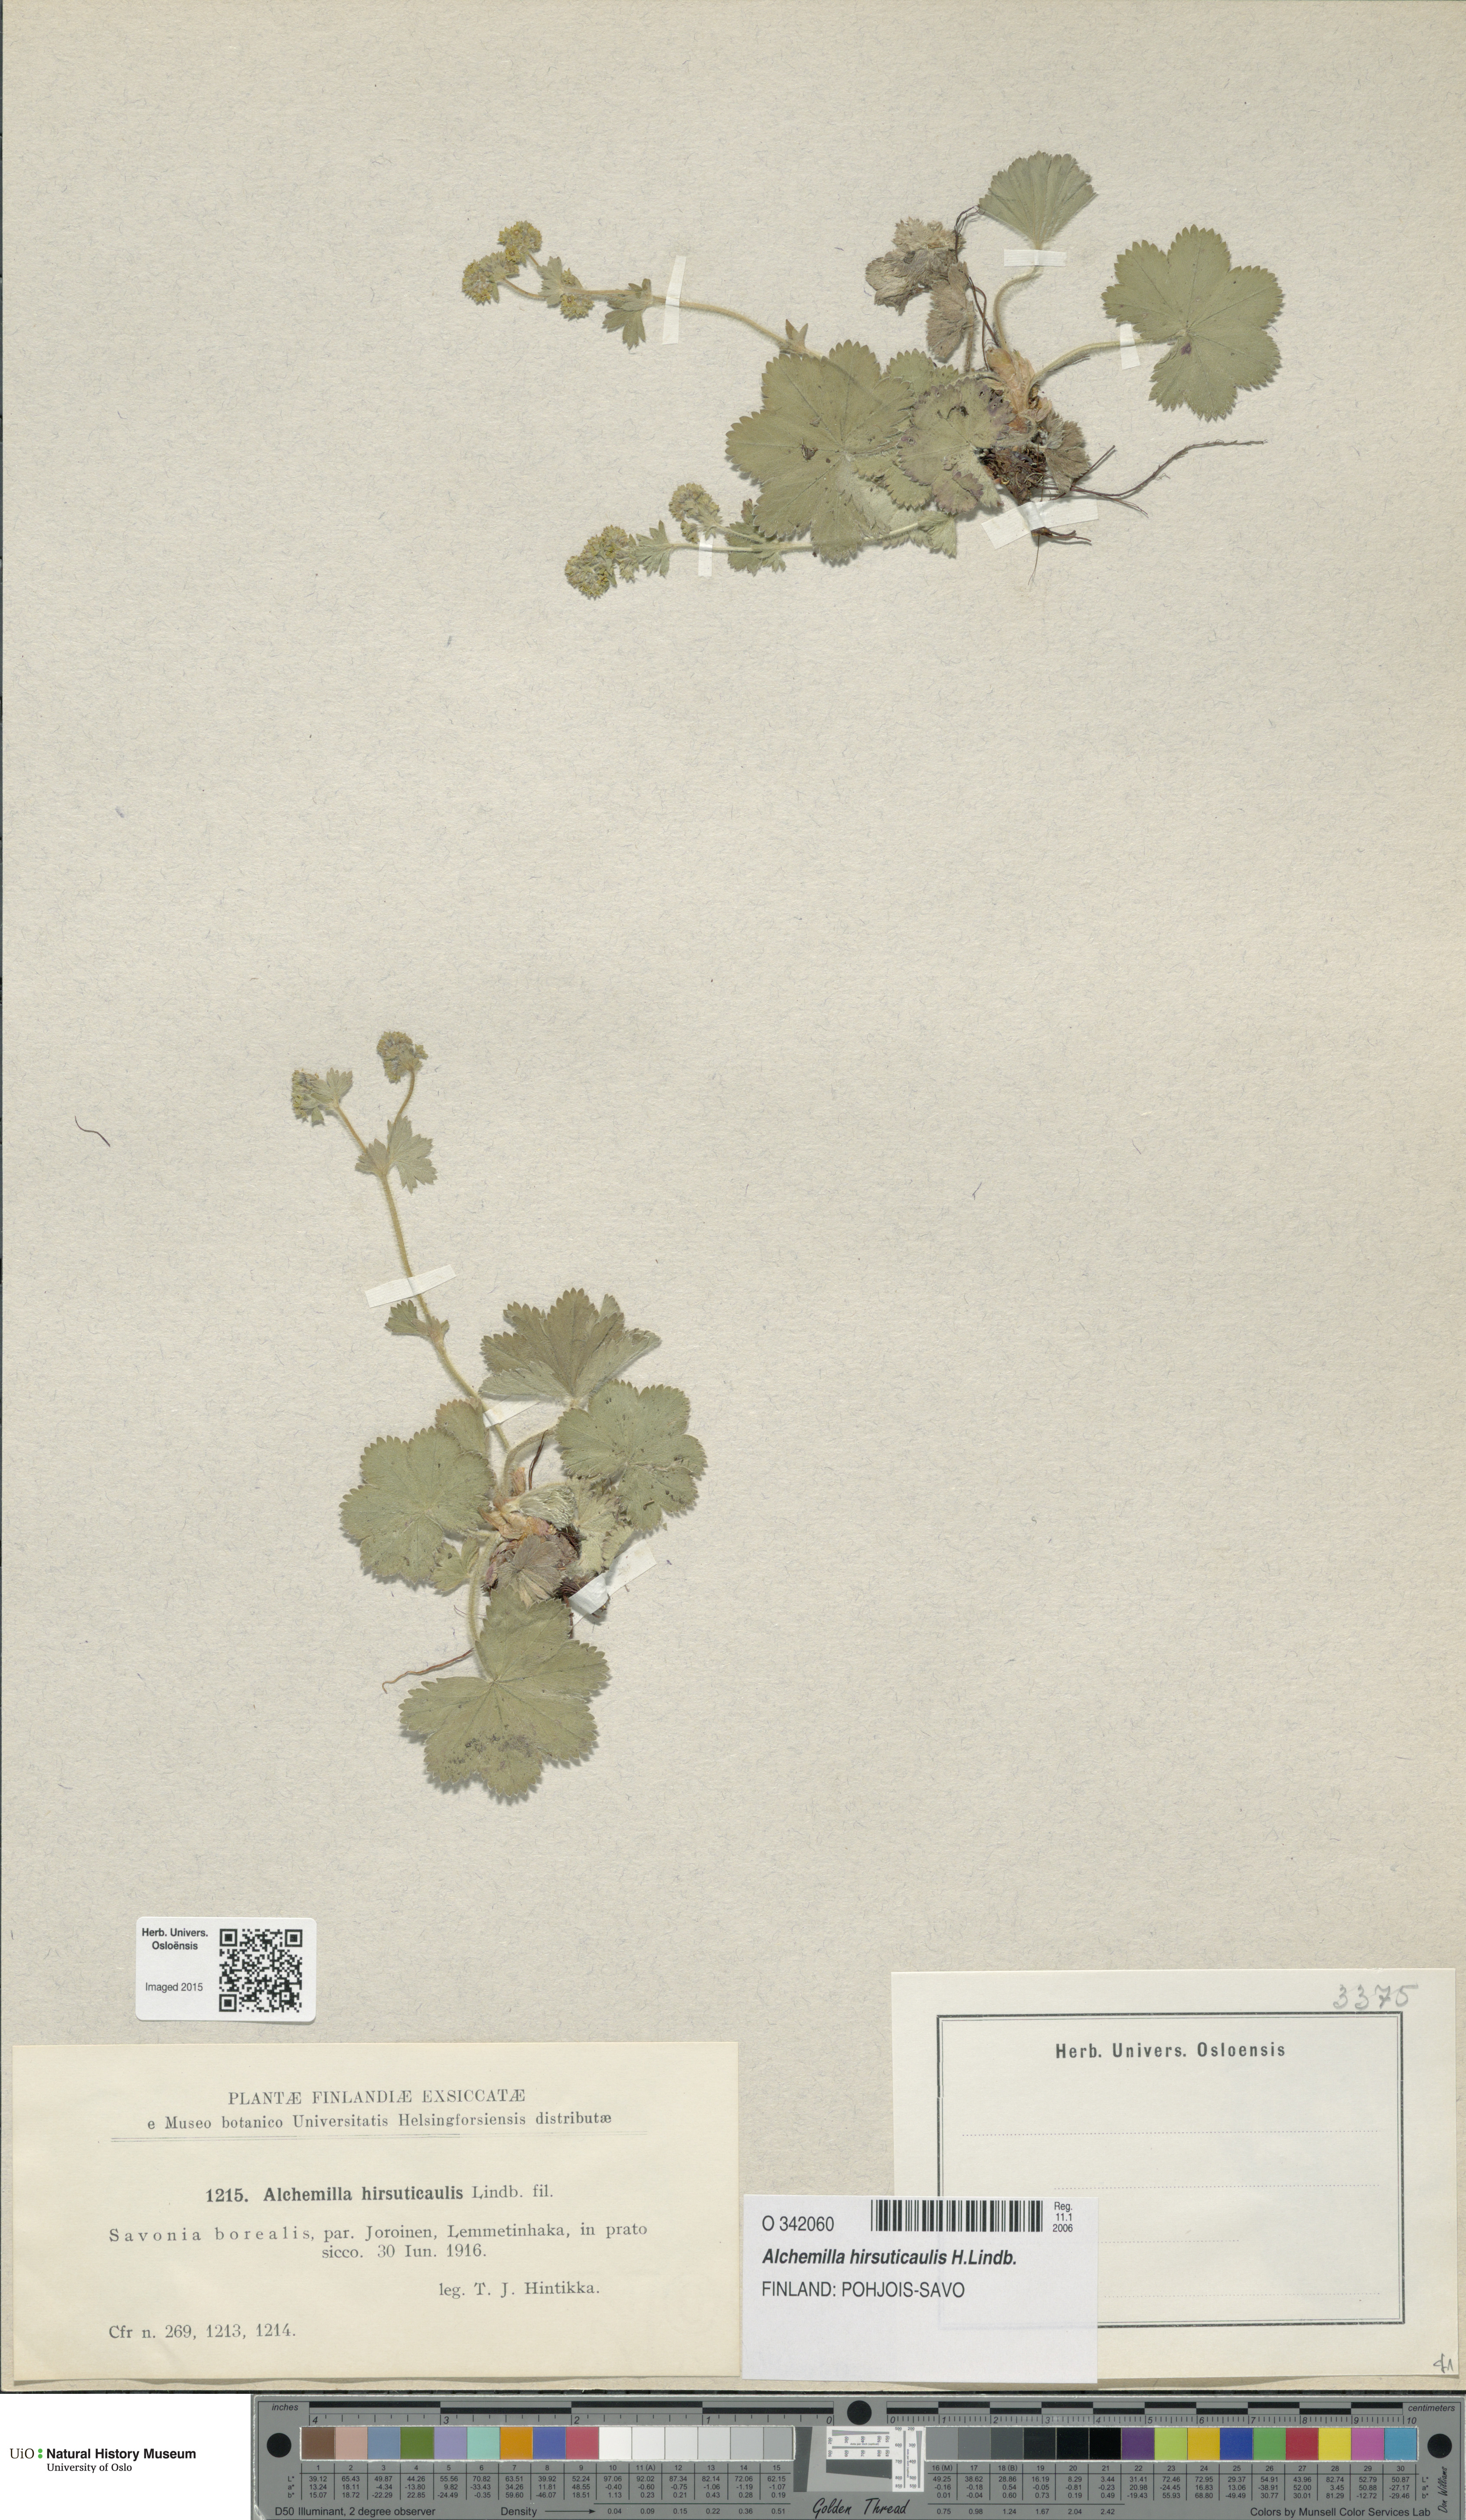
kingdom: Plantae
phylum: Tracheophyta
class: Magnoliopsida
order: Rosales
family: Rosaceae
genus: Alchemilla
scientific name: Alchemilla hirsuticaulis
